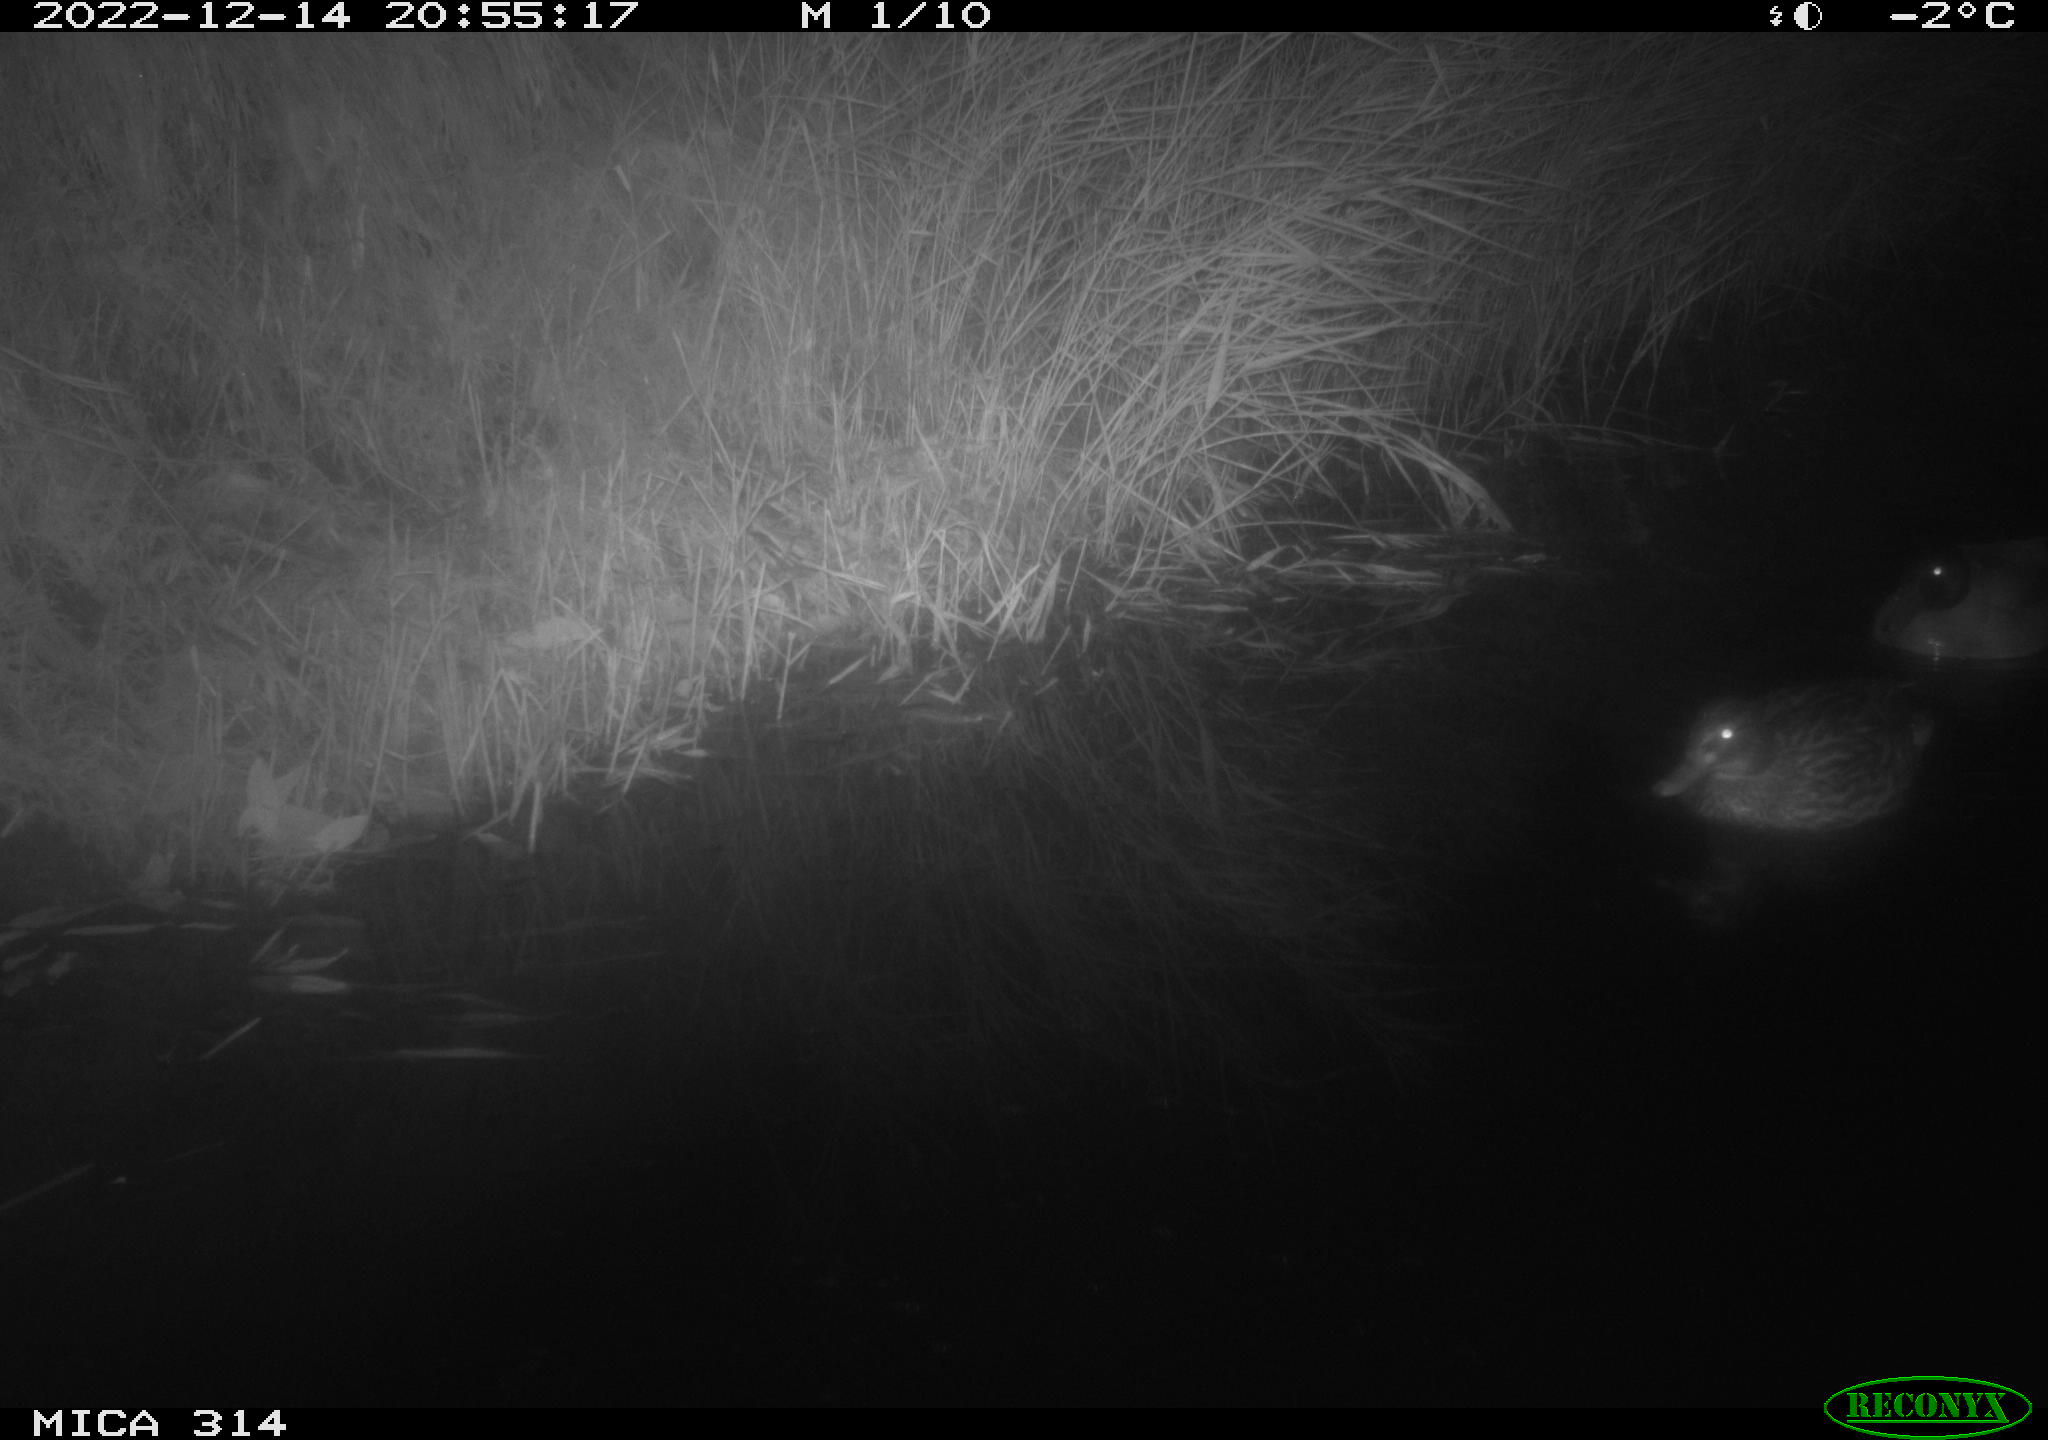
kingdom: Animalia
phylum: Chordata
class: Aves
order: Anseriformes
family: Anatidae
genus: Anas
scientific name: Anas
